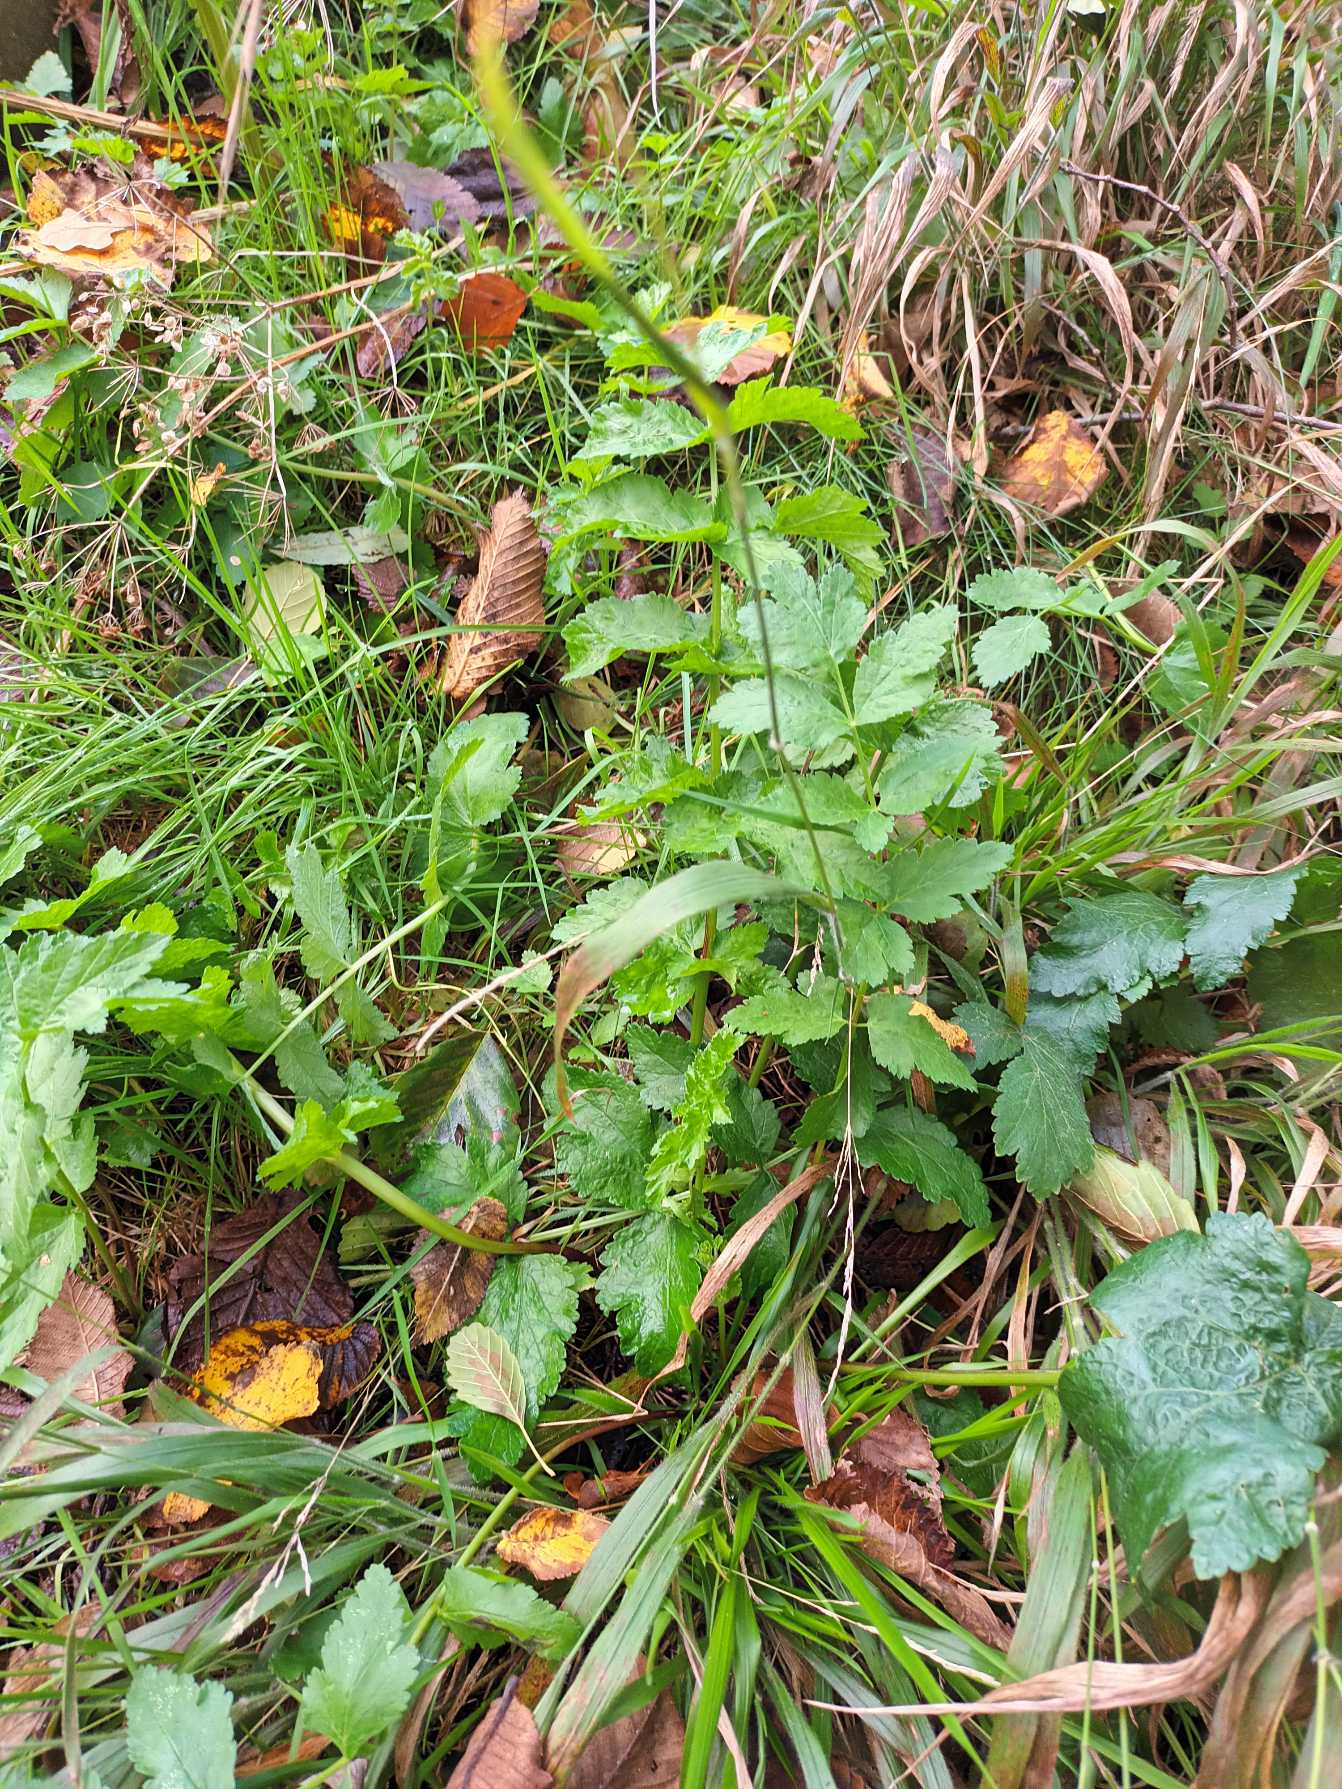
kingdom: Plantae
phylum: Tracheophyta
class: Magnoliopsida
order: Apiales
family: Apiaceae
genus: Pastinaca
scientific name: Pastinaca sativa
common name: Pastinak
